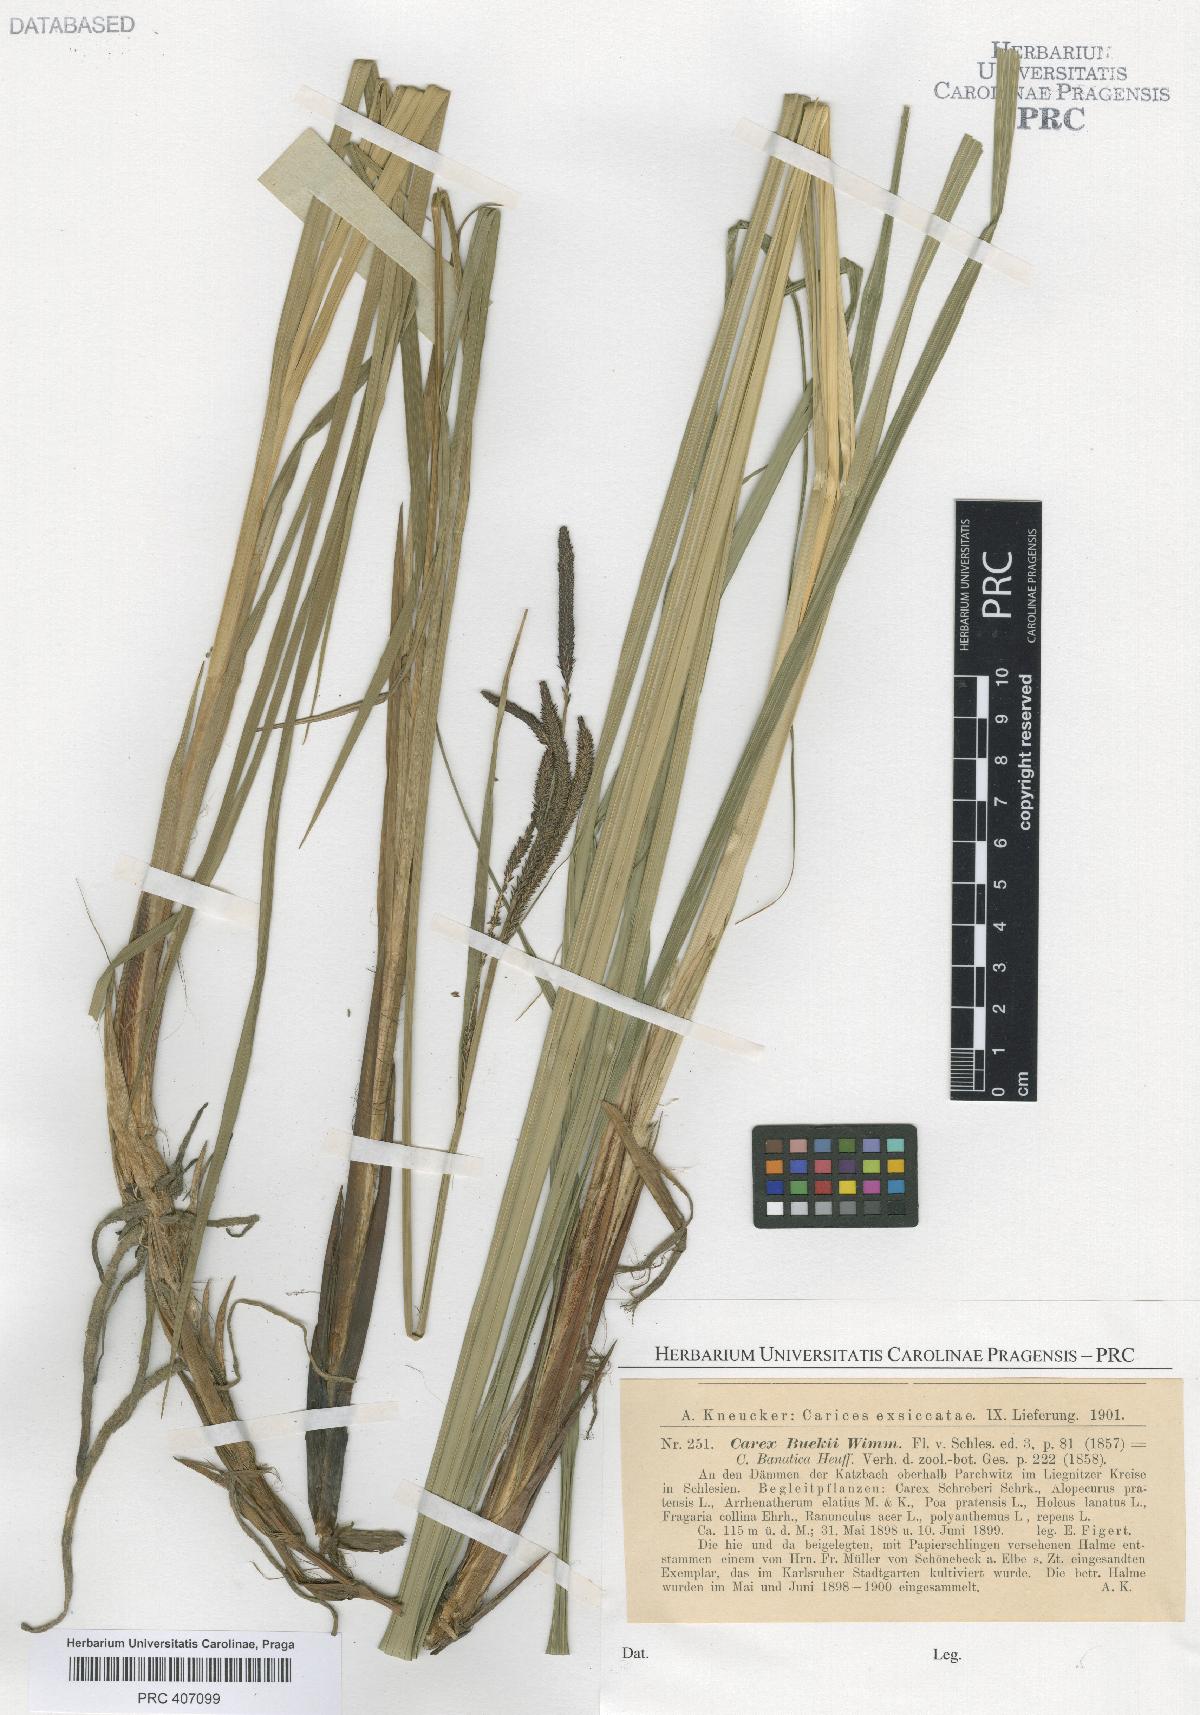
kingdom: Plantae
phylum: Tracheophyta
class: Liliopsida
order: Poales
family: Cyperaceae
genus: Carex
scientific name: Carex buekii
